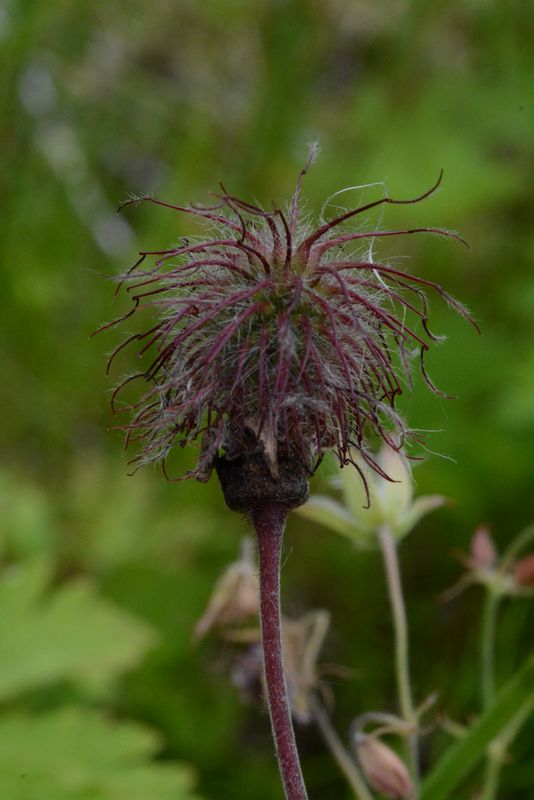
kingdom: Plantae
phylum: Tracheophyta
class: Magnoliopsida
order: Rosales
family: Rosaceae
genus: Geum
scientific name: Geum rivale
